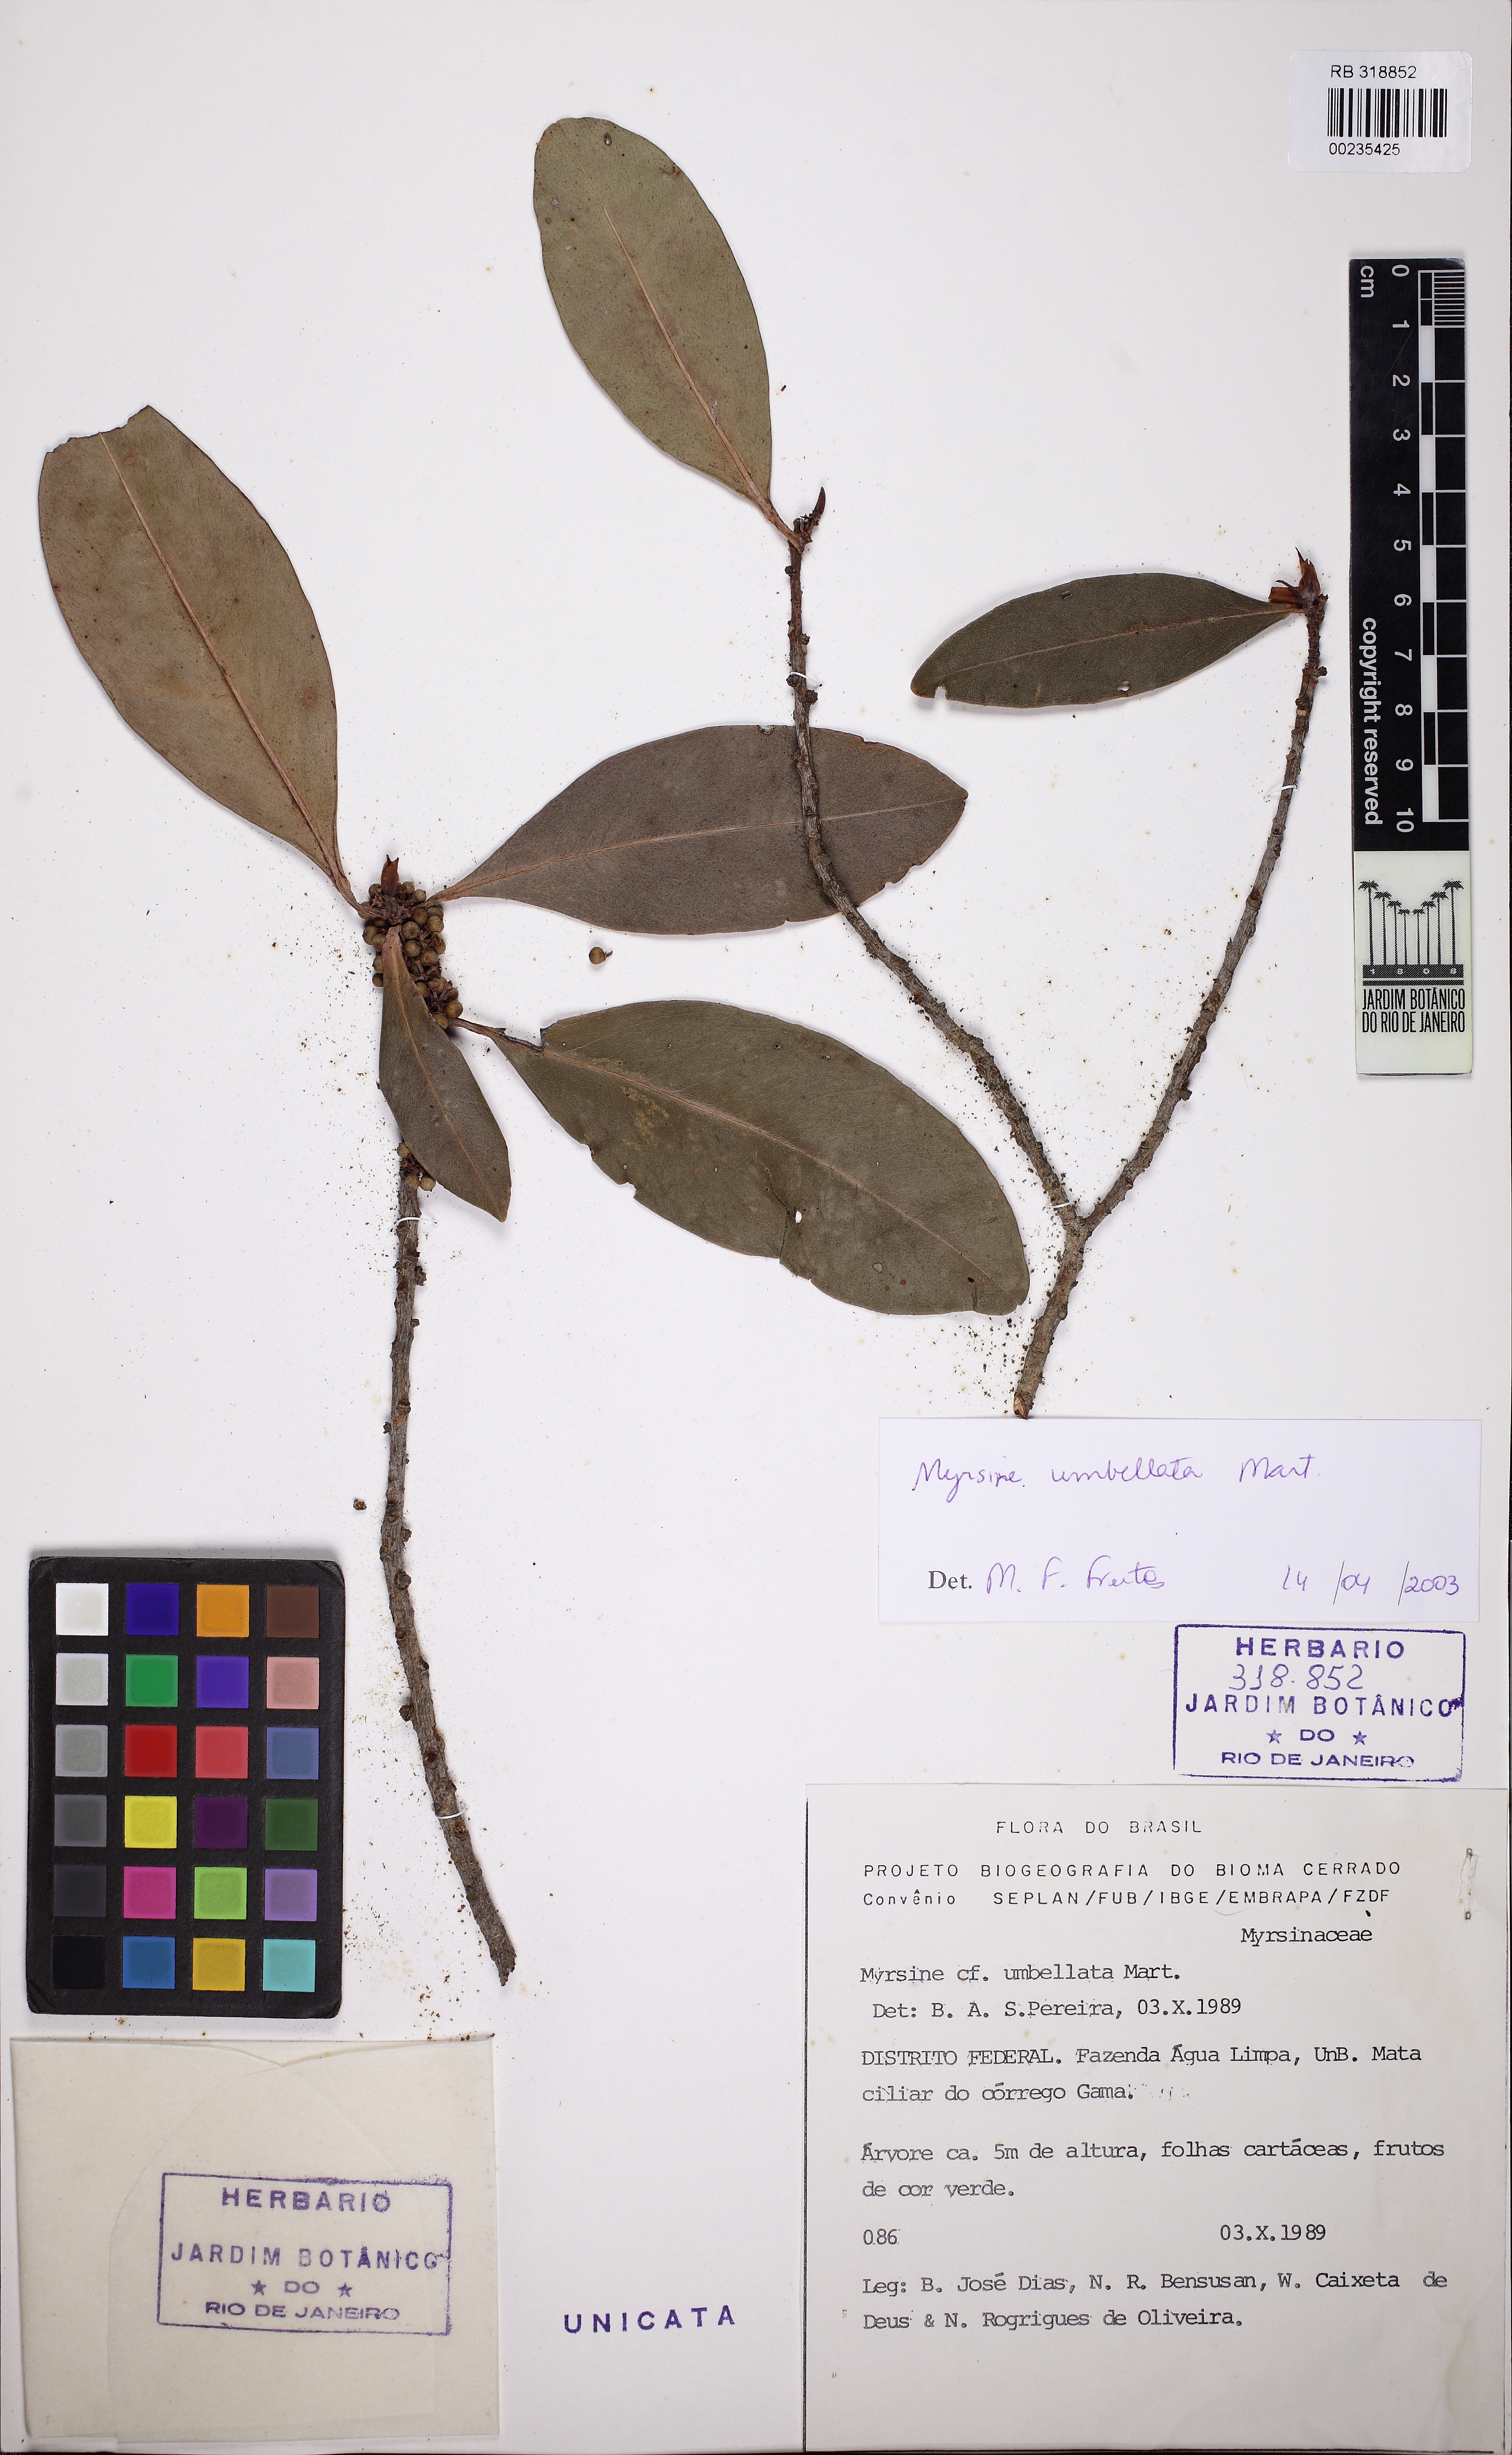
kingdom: Plantae
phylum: Tracheophyta
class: Magnoliopsida
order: Ericales
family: Primulaceae
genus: Myrsine
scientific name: Myrsine umbellata
